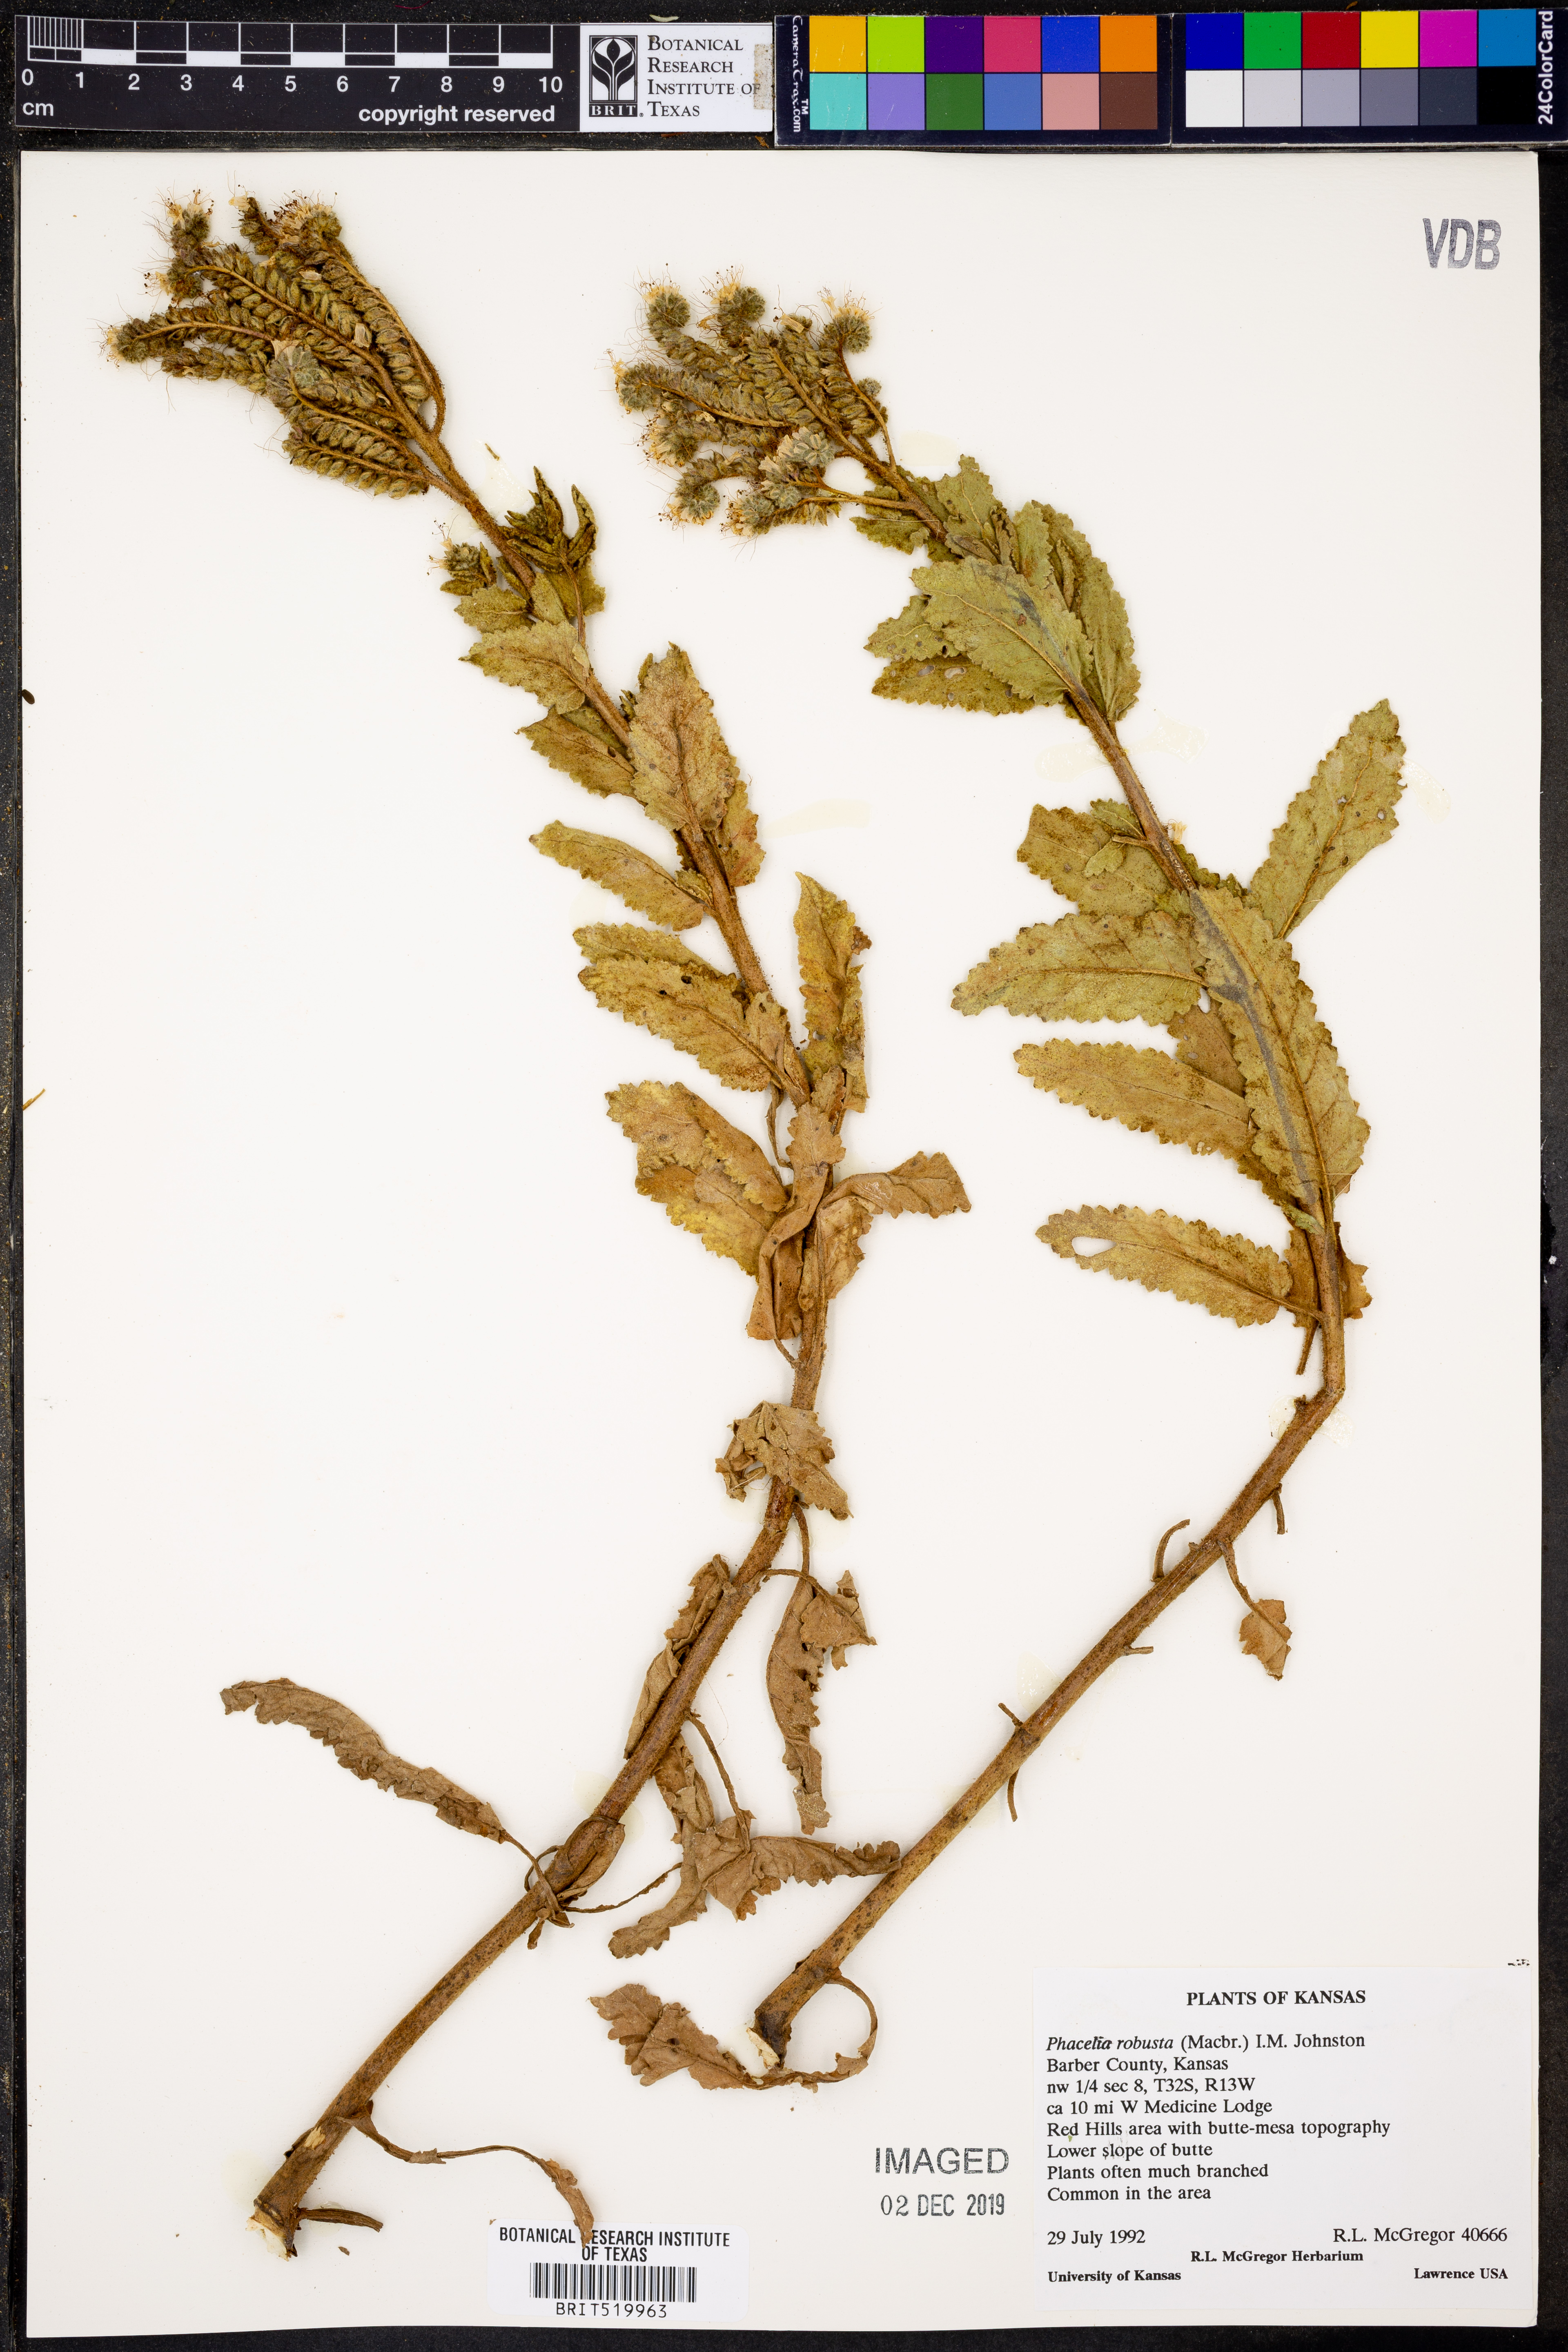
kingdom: Plantae
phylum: Tracheophyta
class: Magnoliopsida
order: Boraginales
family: Hydrophyllaceae
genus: Phacelia
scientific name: Phacelia robusta
